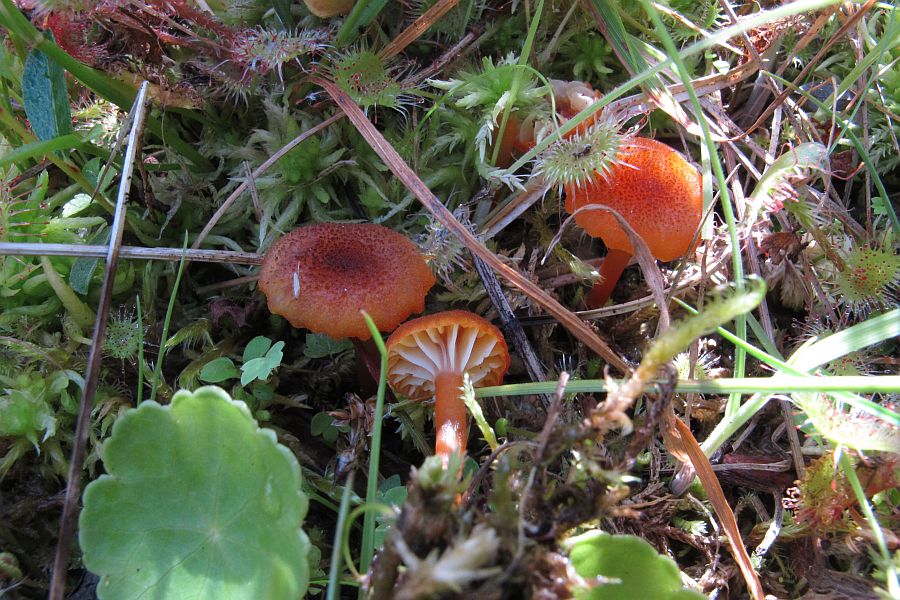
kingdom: Fungi
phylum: Basidiomycota
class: Agaricomycetes
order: Agaricales
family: Hygrophoraceae
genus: Hygrocybe
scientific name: Hygrocybe coccineocrenata
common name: tørvemos-vokshat
